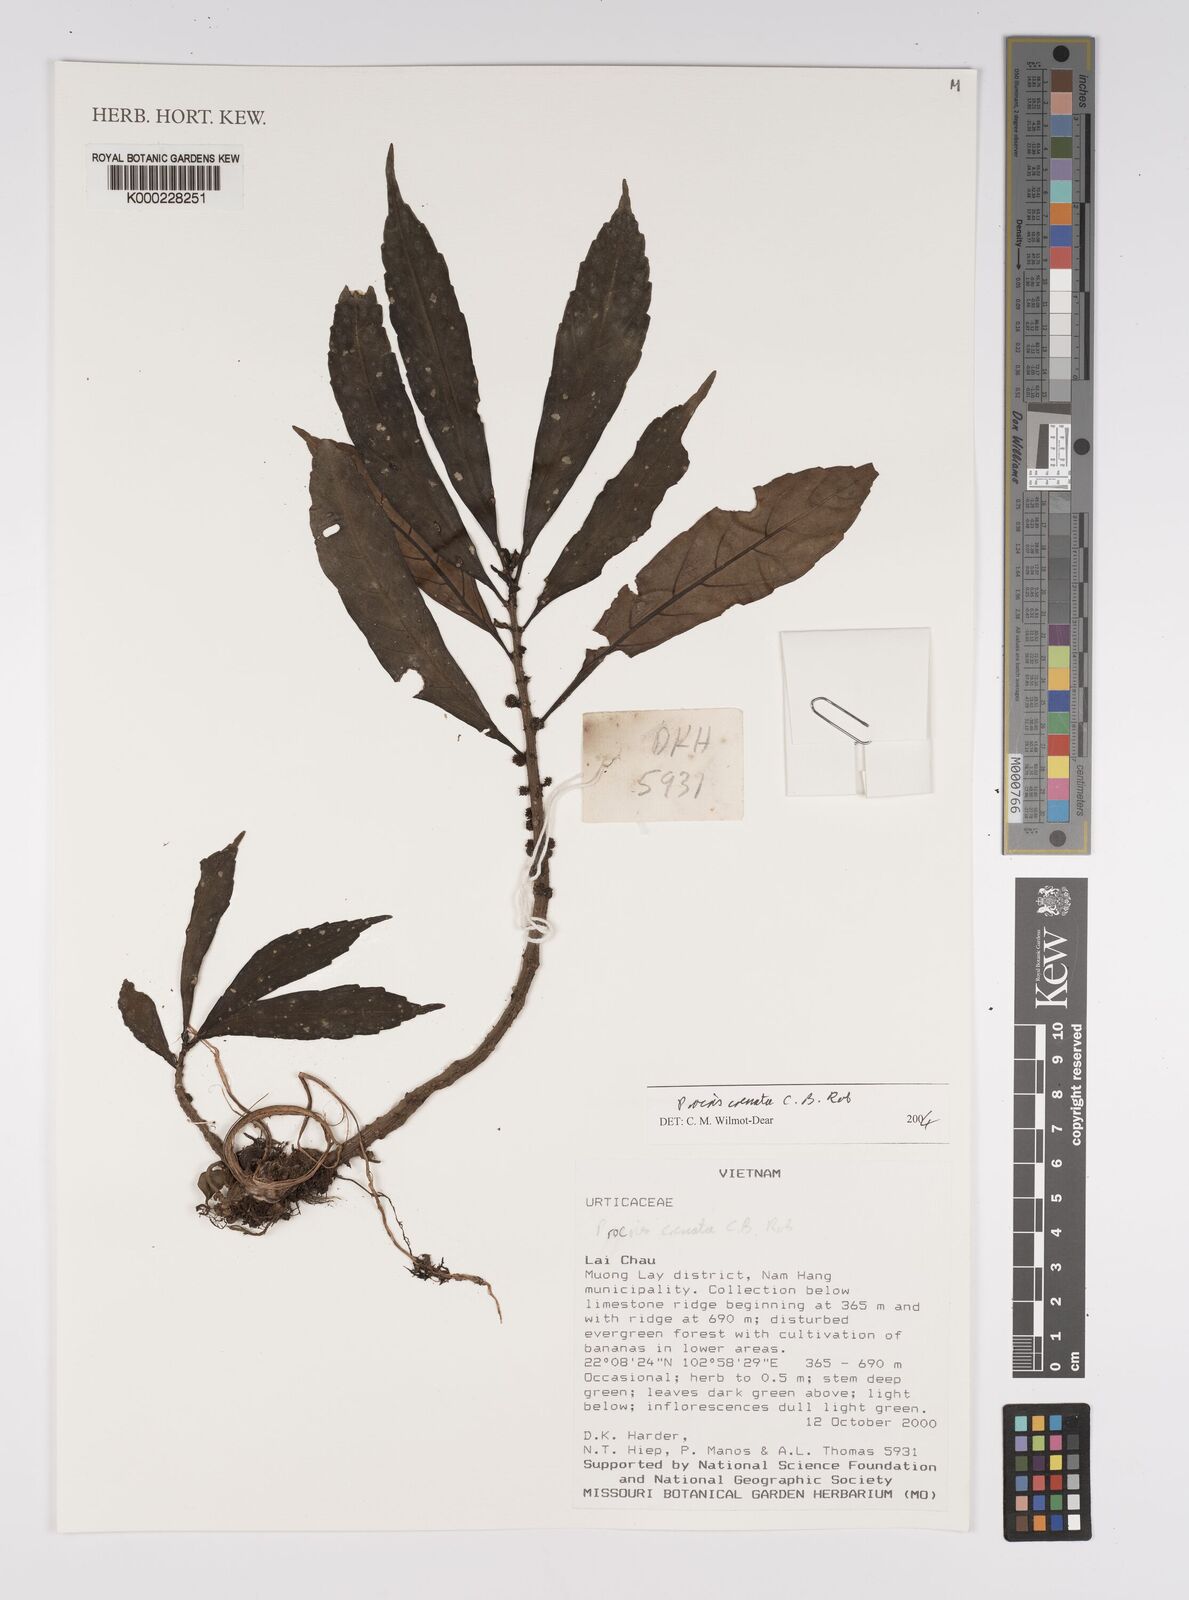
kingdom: Plantae
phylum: Tracheophyta
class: Magnoliopsida
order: Rosales
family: Urticaceae
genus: Procris
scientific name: Procris crenata
